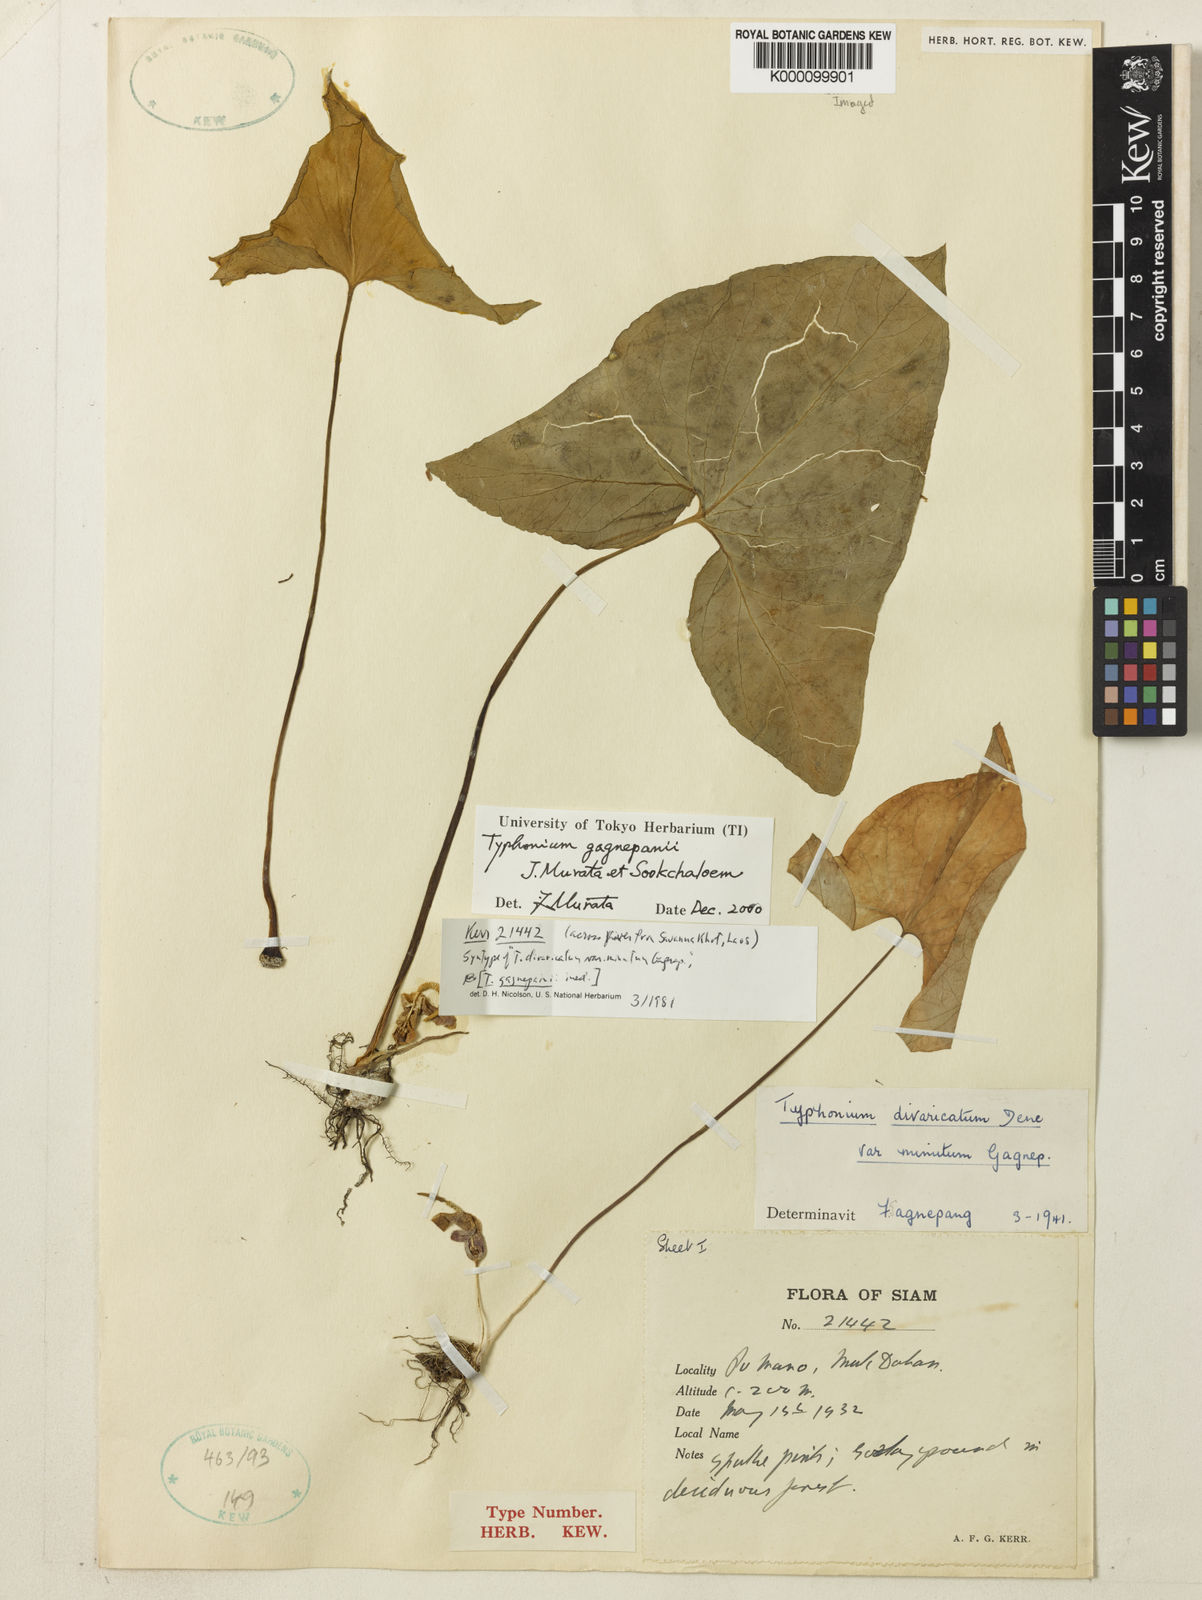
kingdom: Plantae
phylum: Tracheophyta
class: Liliopsida
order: Alismatales
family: Araceae
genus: Typhonium
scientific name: Typhonium gagnepainii
